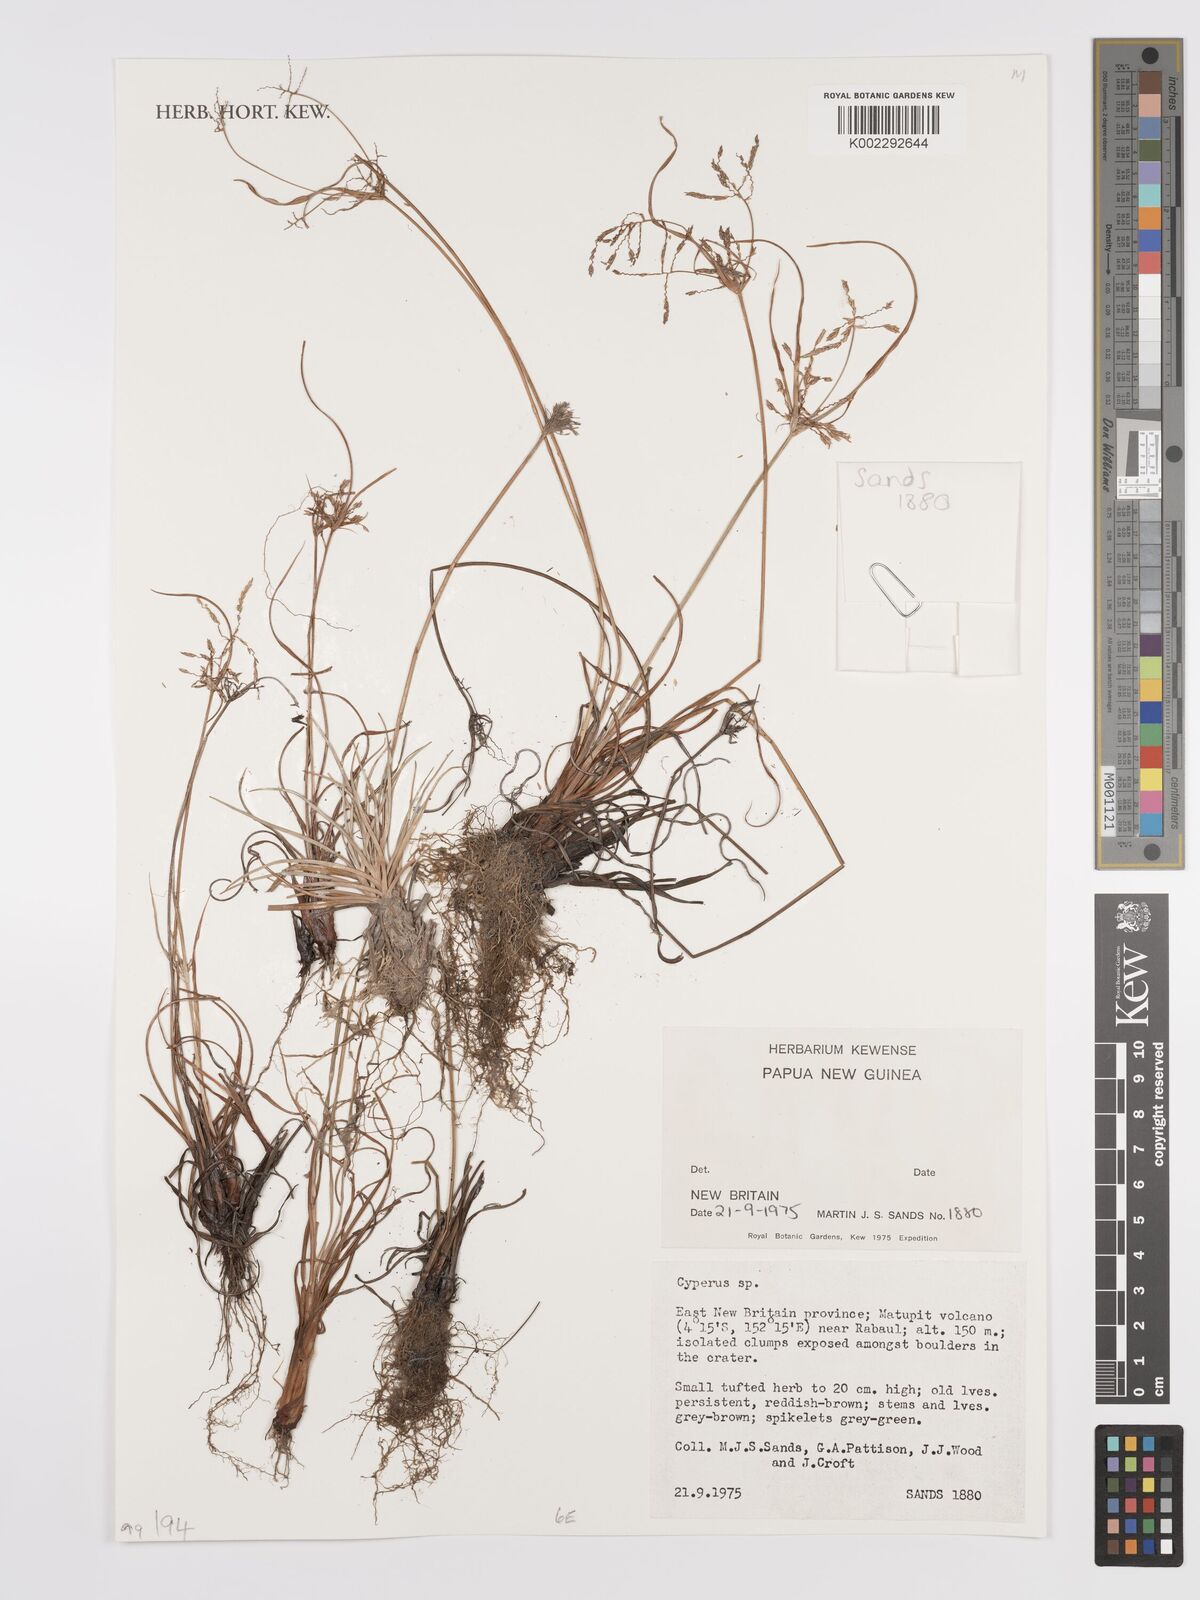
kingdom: Plantae
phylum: Tracheophyta
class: Liliopsida
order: Poales
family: Cyperaceae
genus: Cyperus
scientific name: Cyperus
